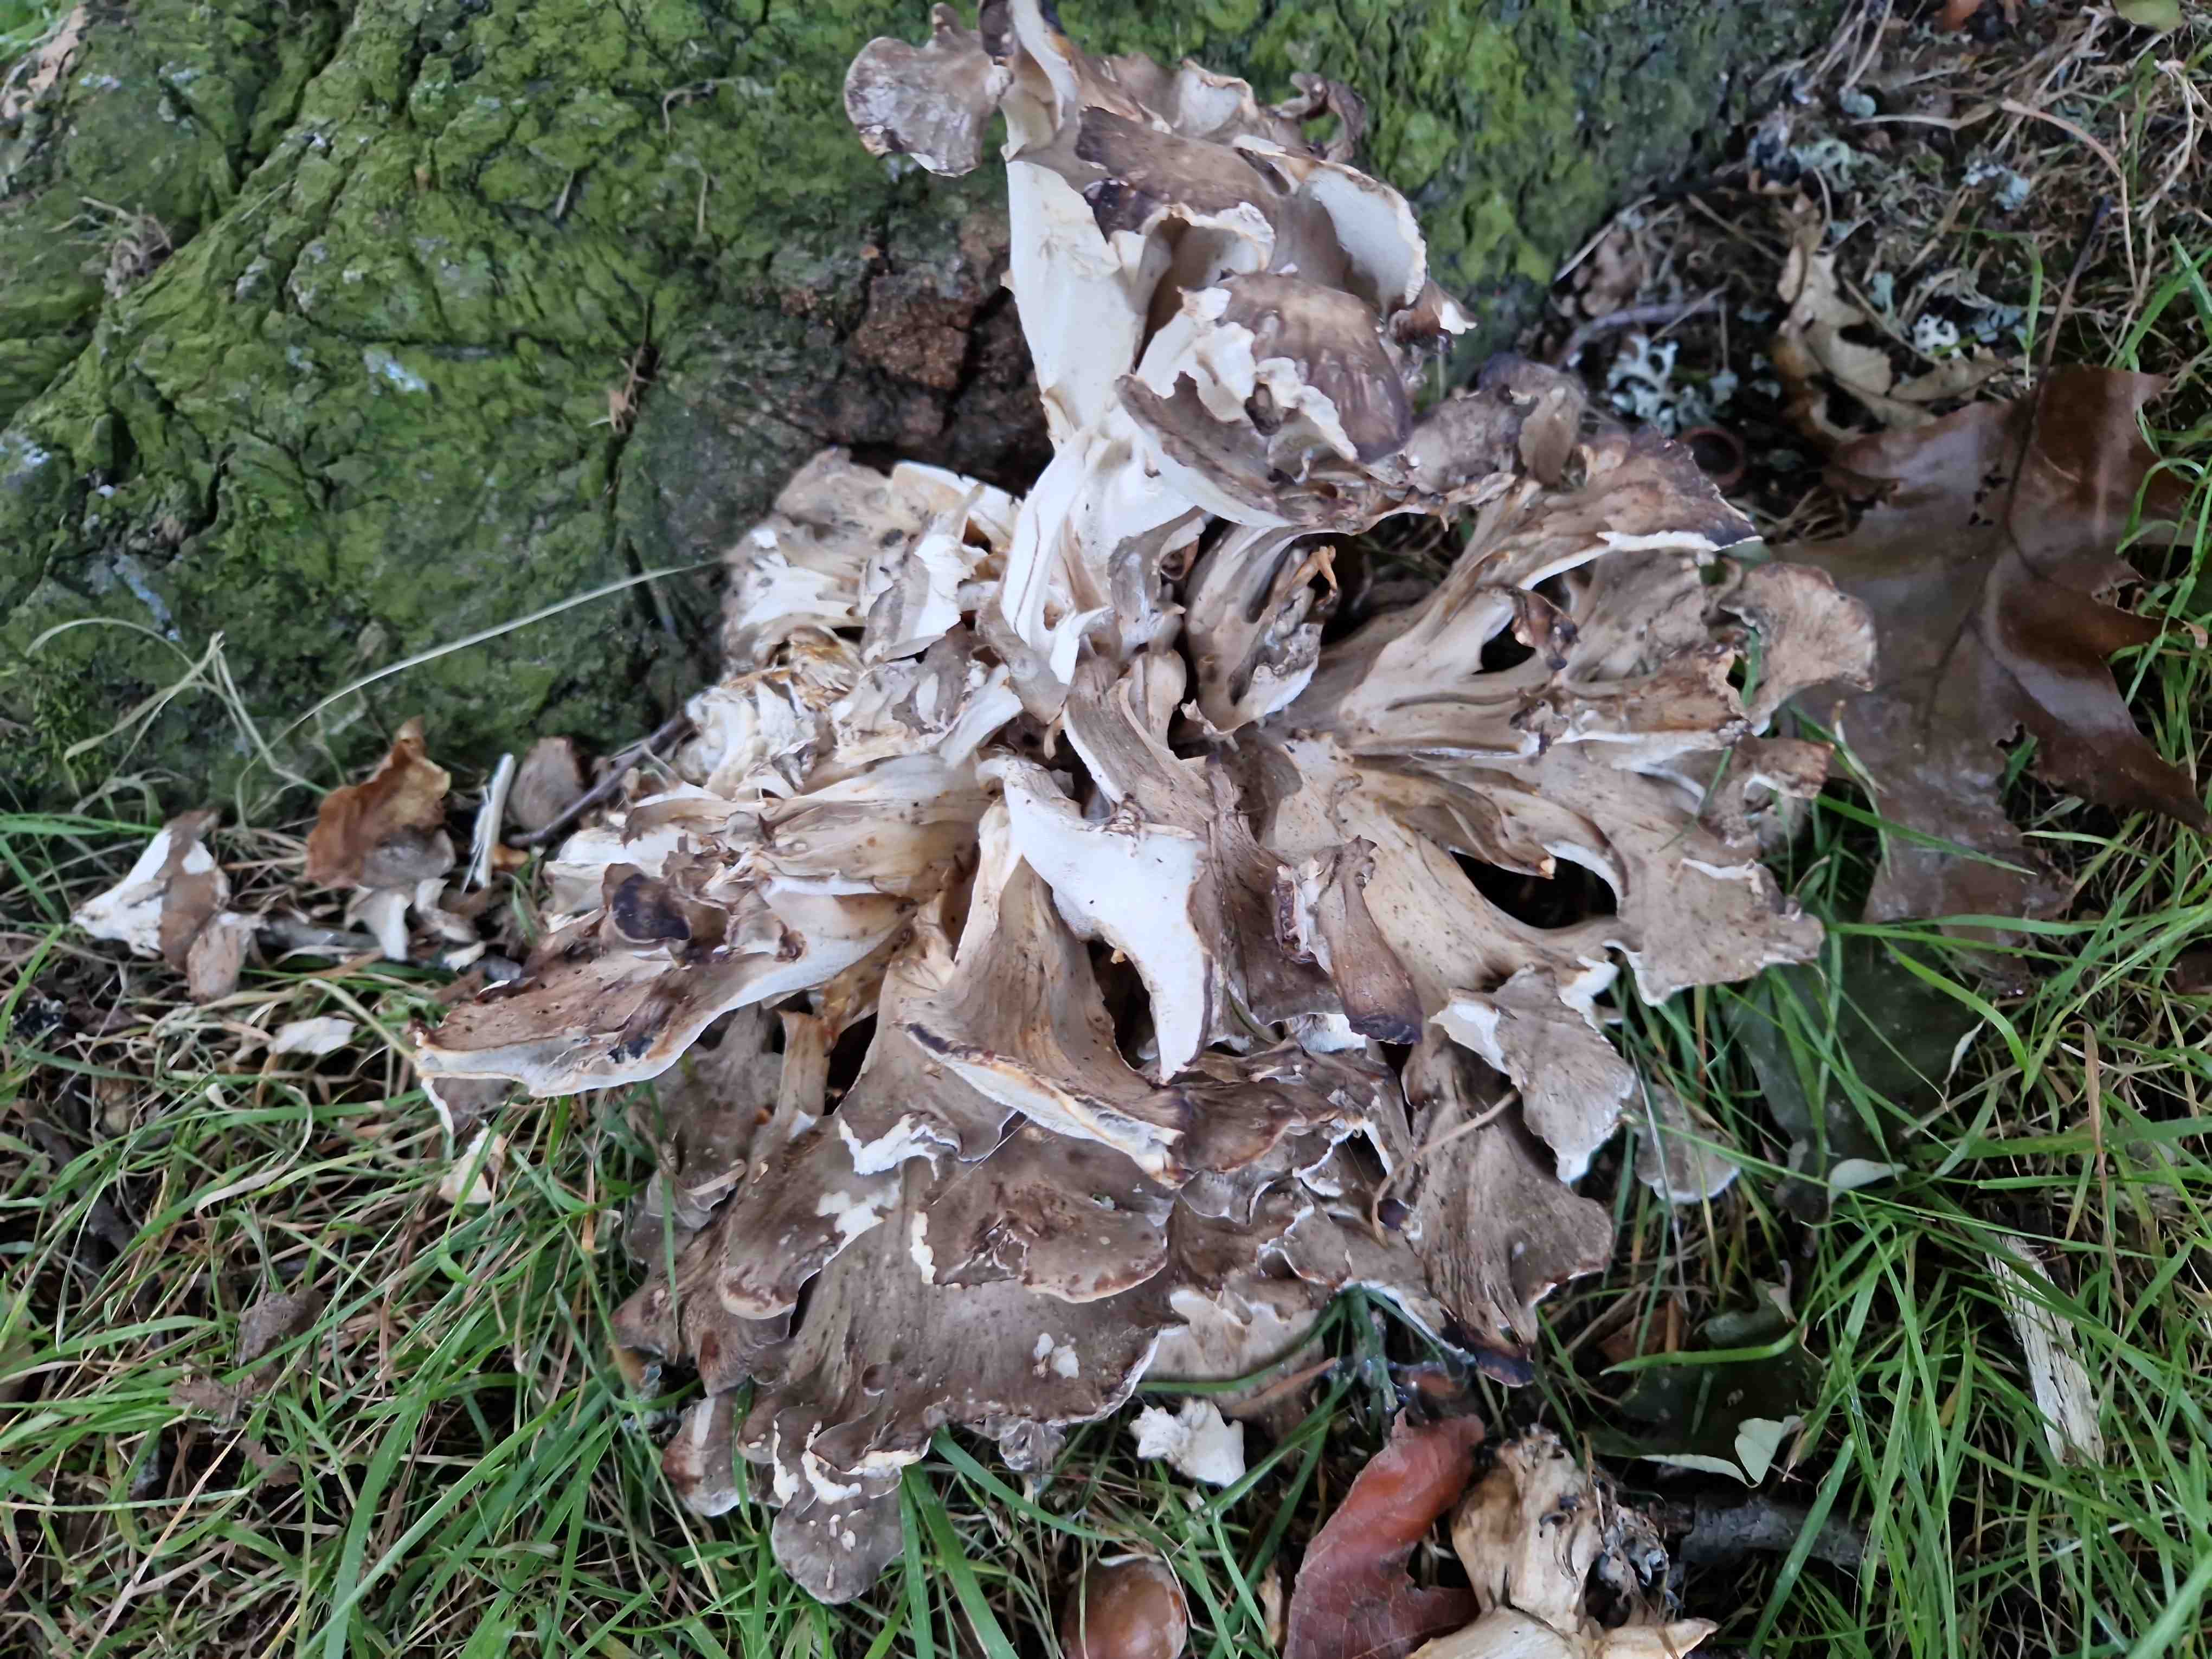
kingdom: Fungi
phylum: Basidiomycota
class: Agaricomycetes
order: Polyporales
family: Grifolaceae
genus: Grifola
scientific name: Grifola frondosa
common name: tueporesvamp
